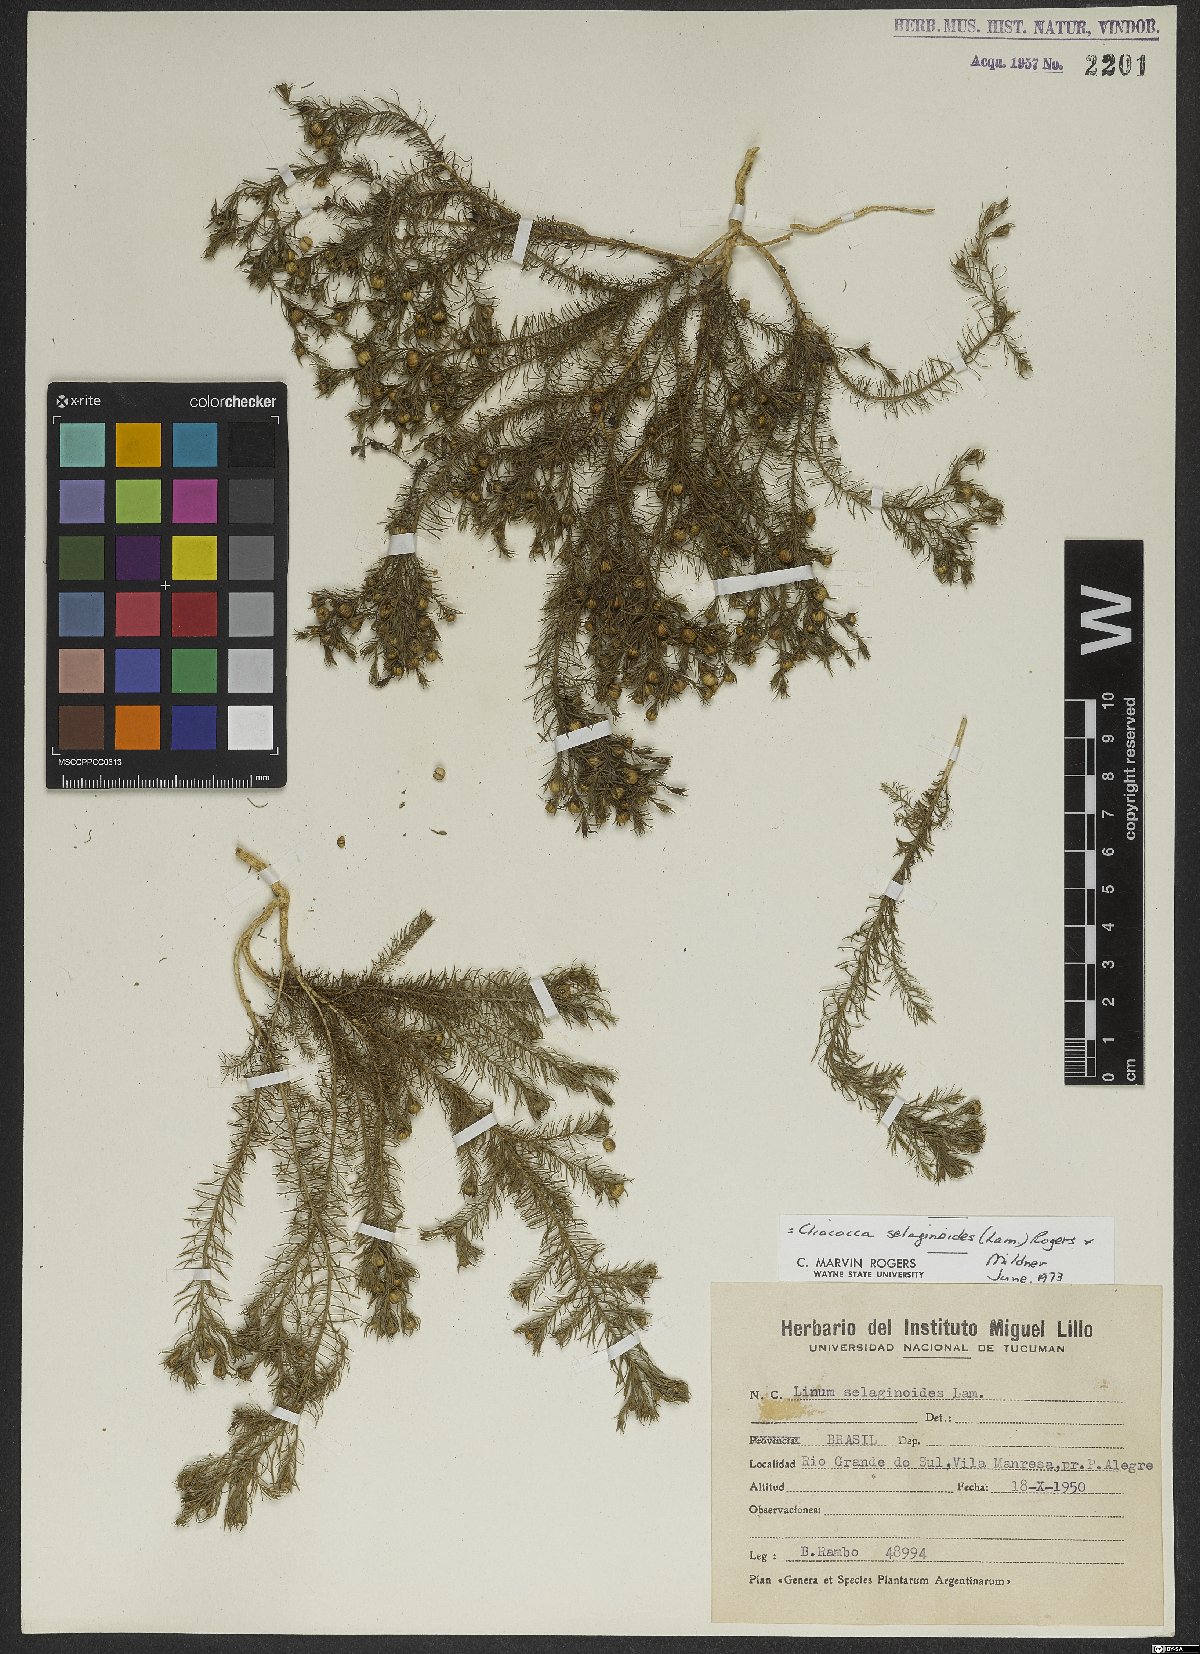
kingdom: Plantae
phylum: Tracheophyta
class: Magnoliopsida
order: Malpighiales
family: Linaceae
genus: Cliococca
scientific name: Cliococca selaginoides
